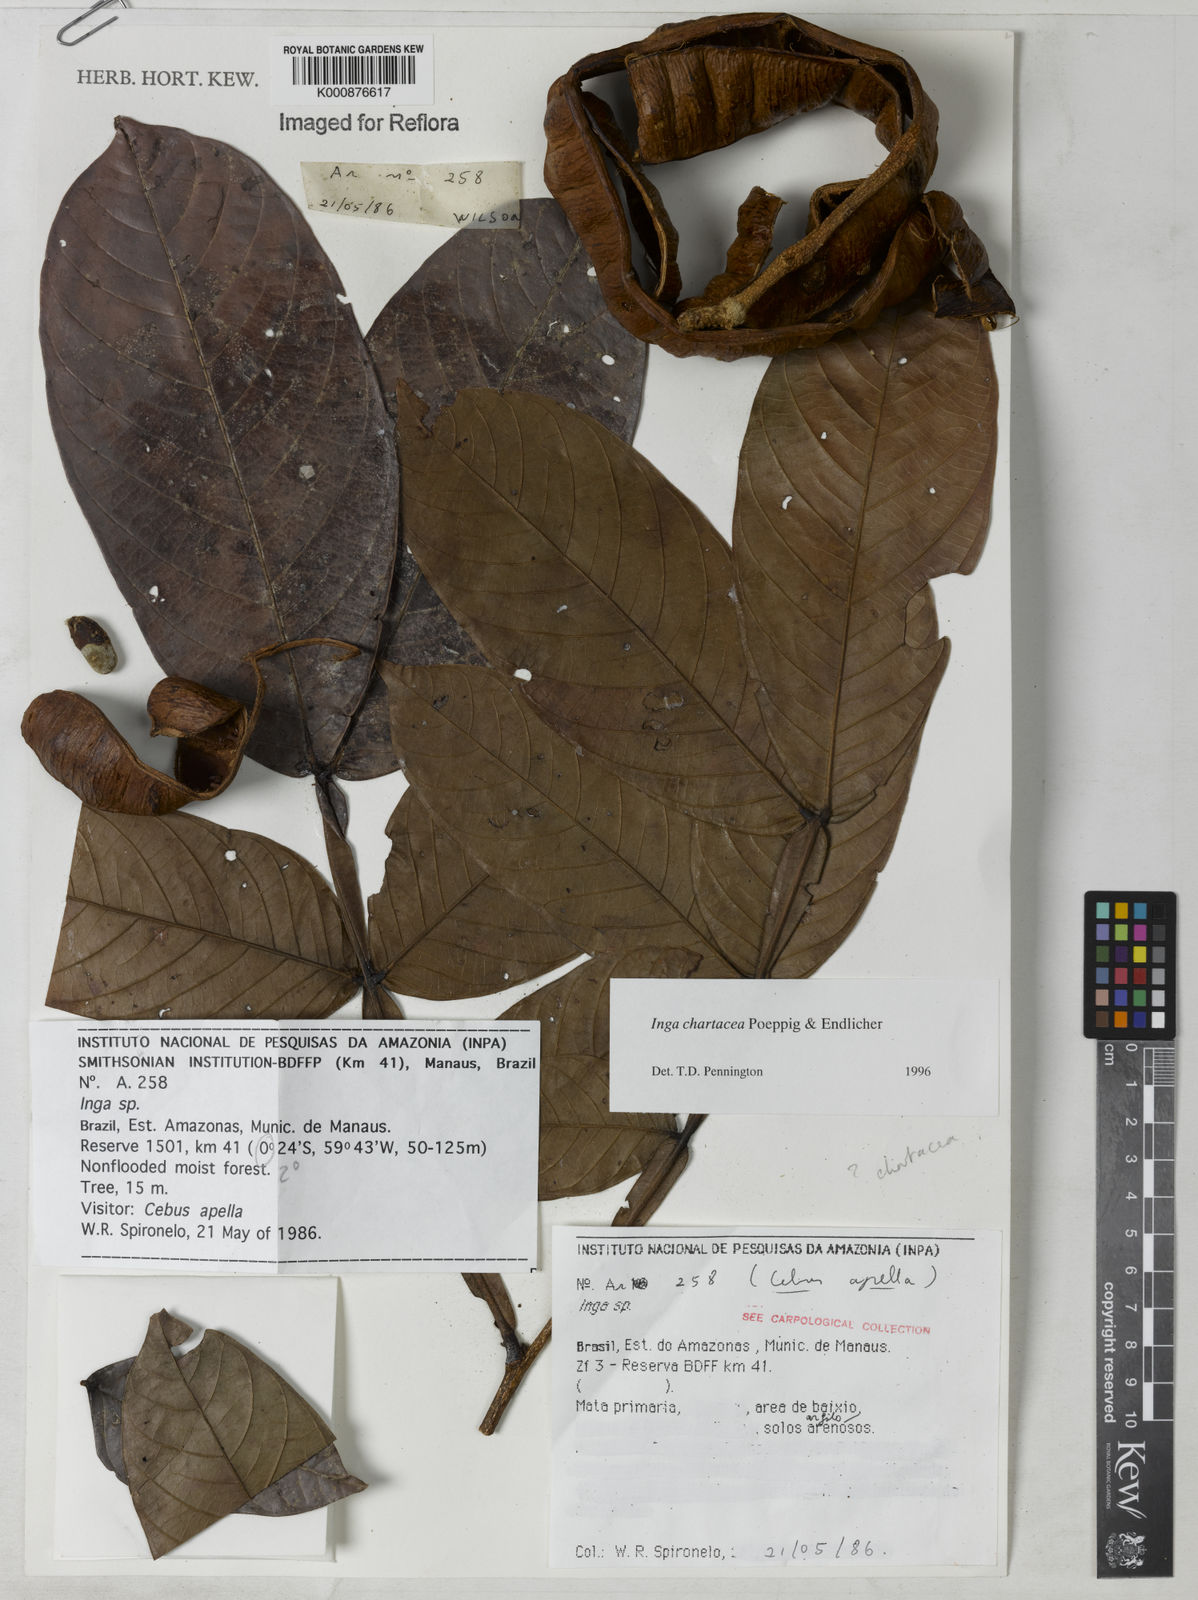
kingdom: Plantae
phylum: Tracheophyta
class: Magnoliopsida
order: Fabales
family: Fabaceae
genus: Inga
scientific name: Inga chartacea
